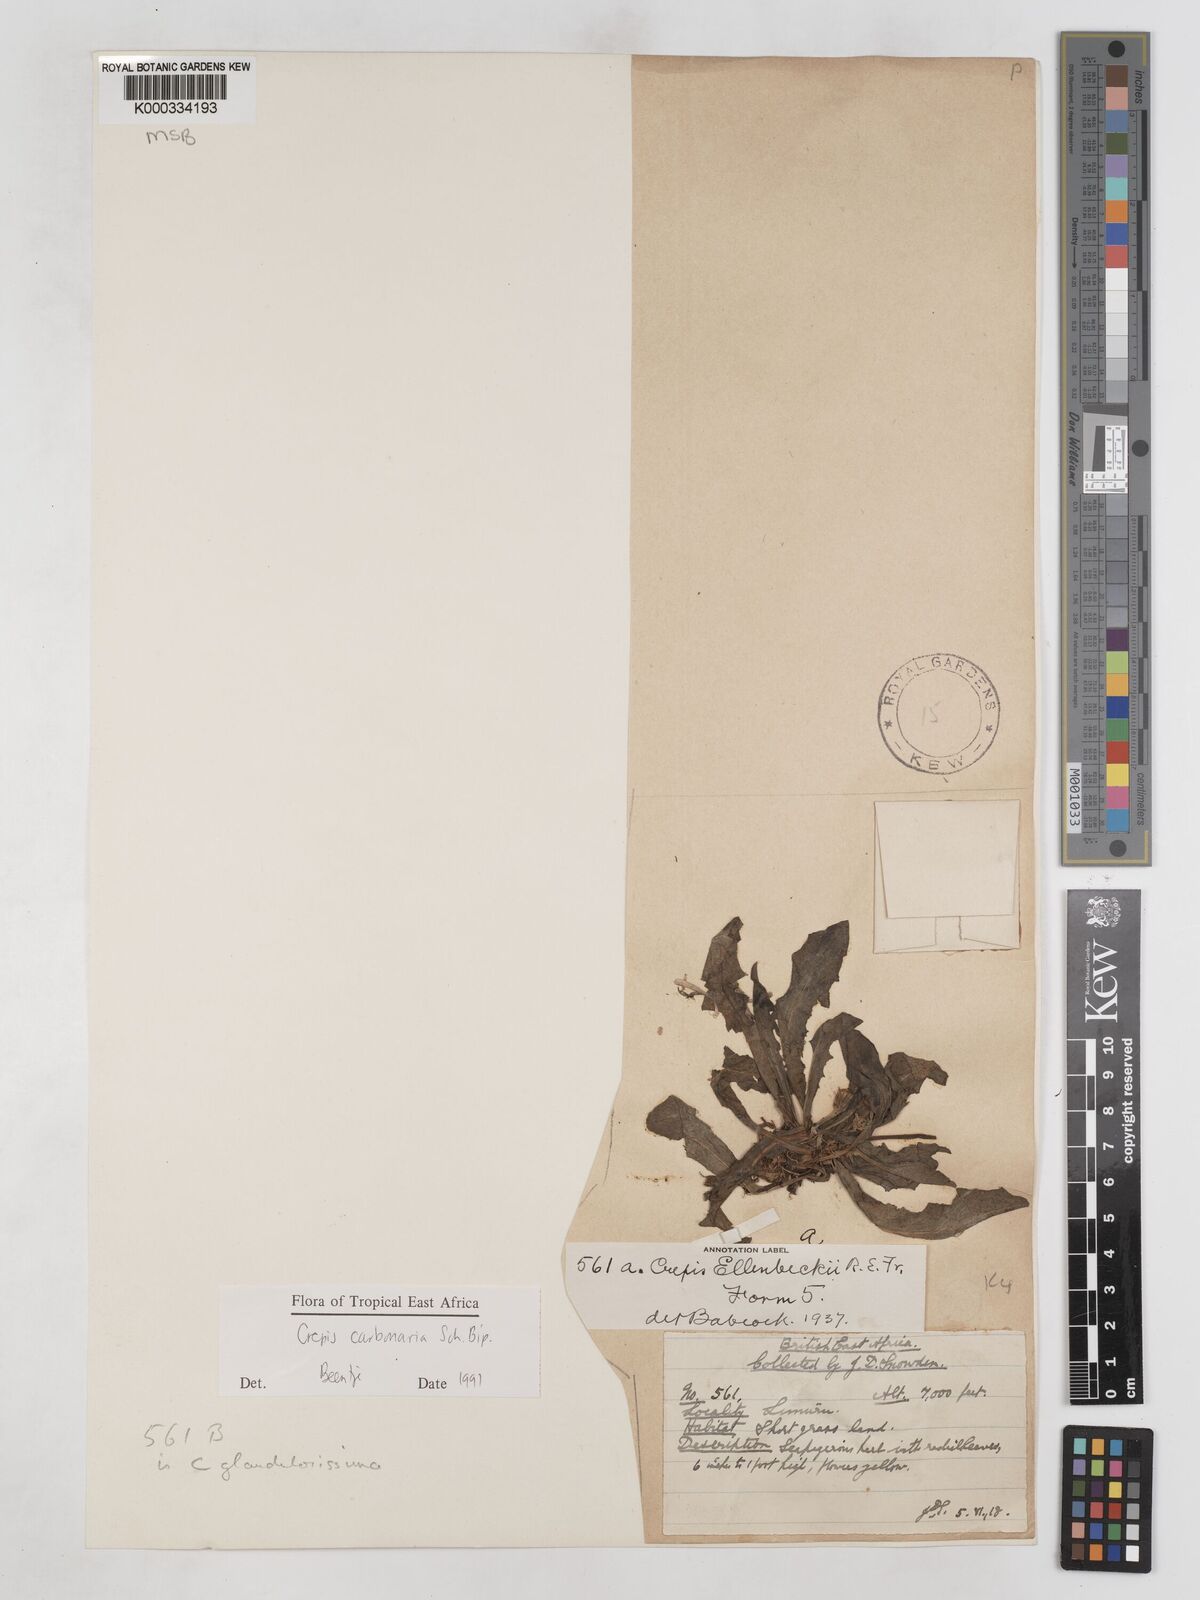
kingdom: Plantae
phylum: Tracheophyta
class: Magnoliopsida
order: Asterales
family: Asteraceae
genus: Crepis
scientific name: Crepis carbonaria
